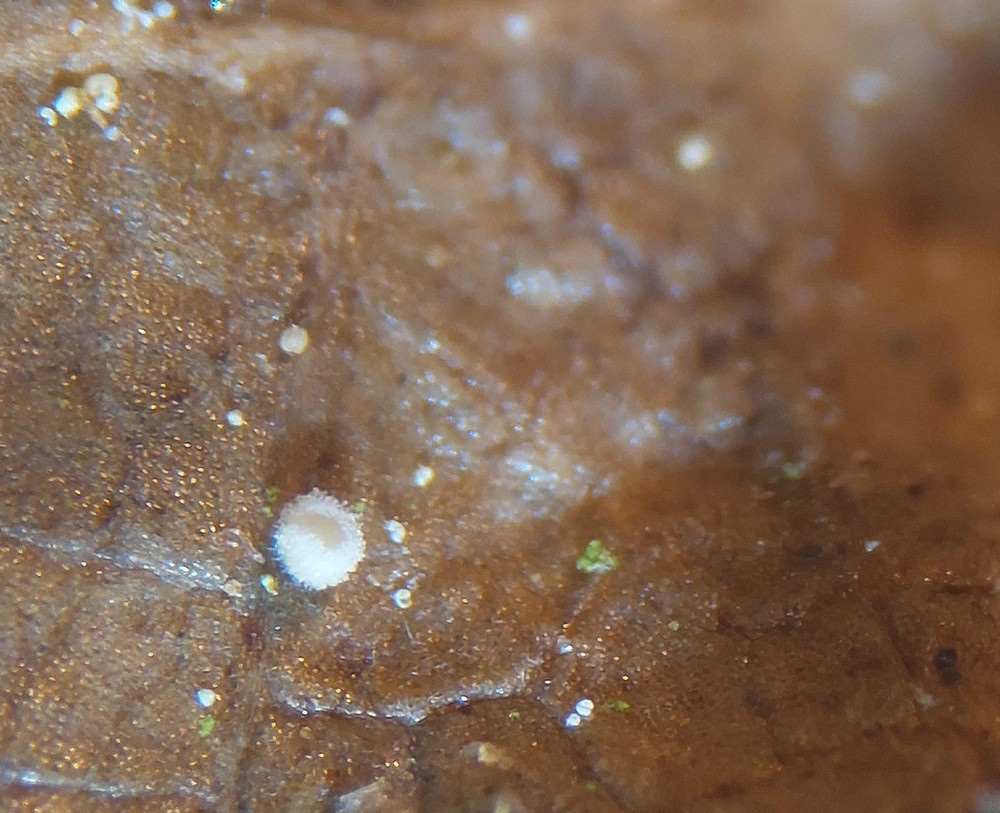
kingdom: Fungi
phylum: Ascomycota
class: Leotiomycetes
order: Helotiales
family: Lachnaceae
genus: Lachnum
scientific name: Lachnum rhytismatis
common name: blad-frynseskive
